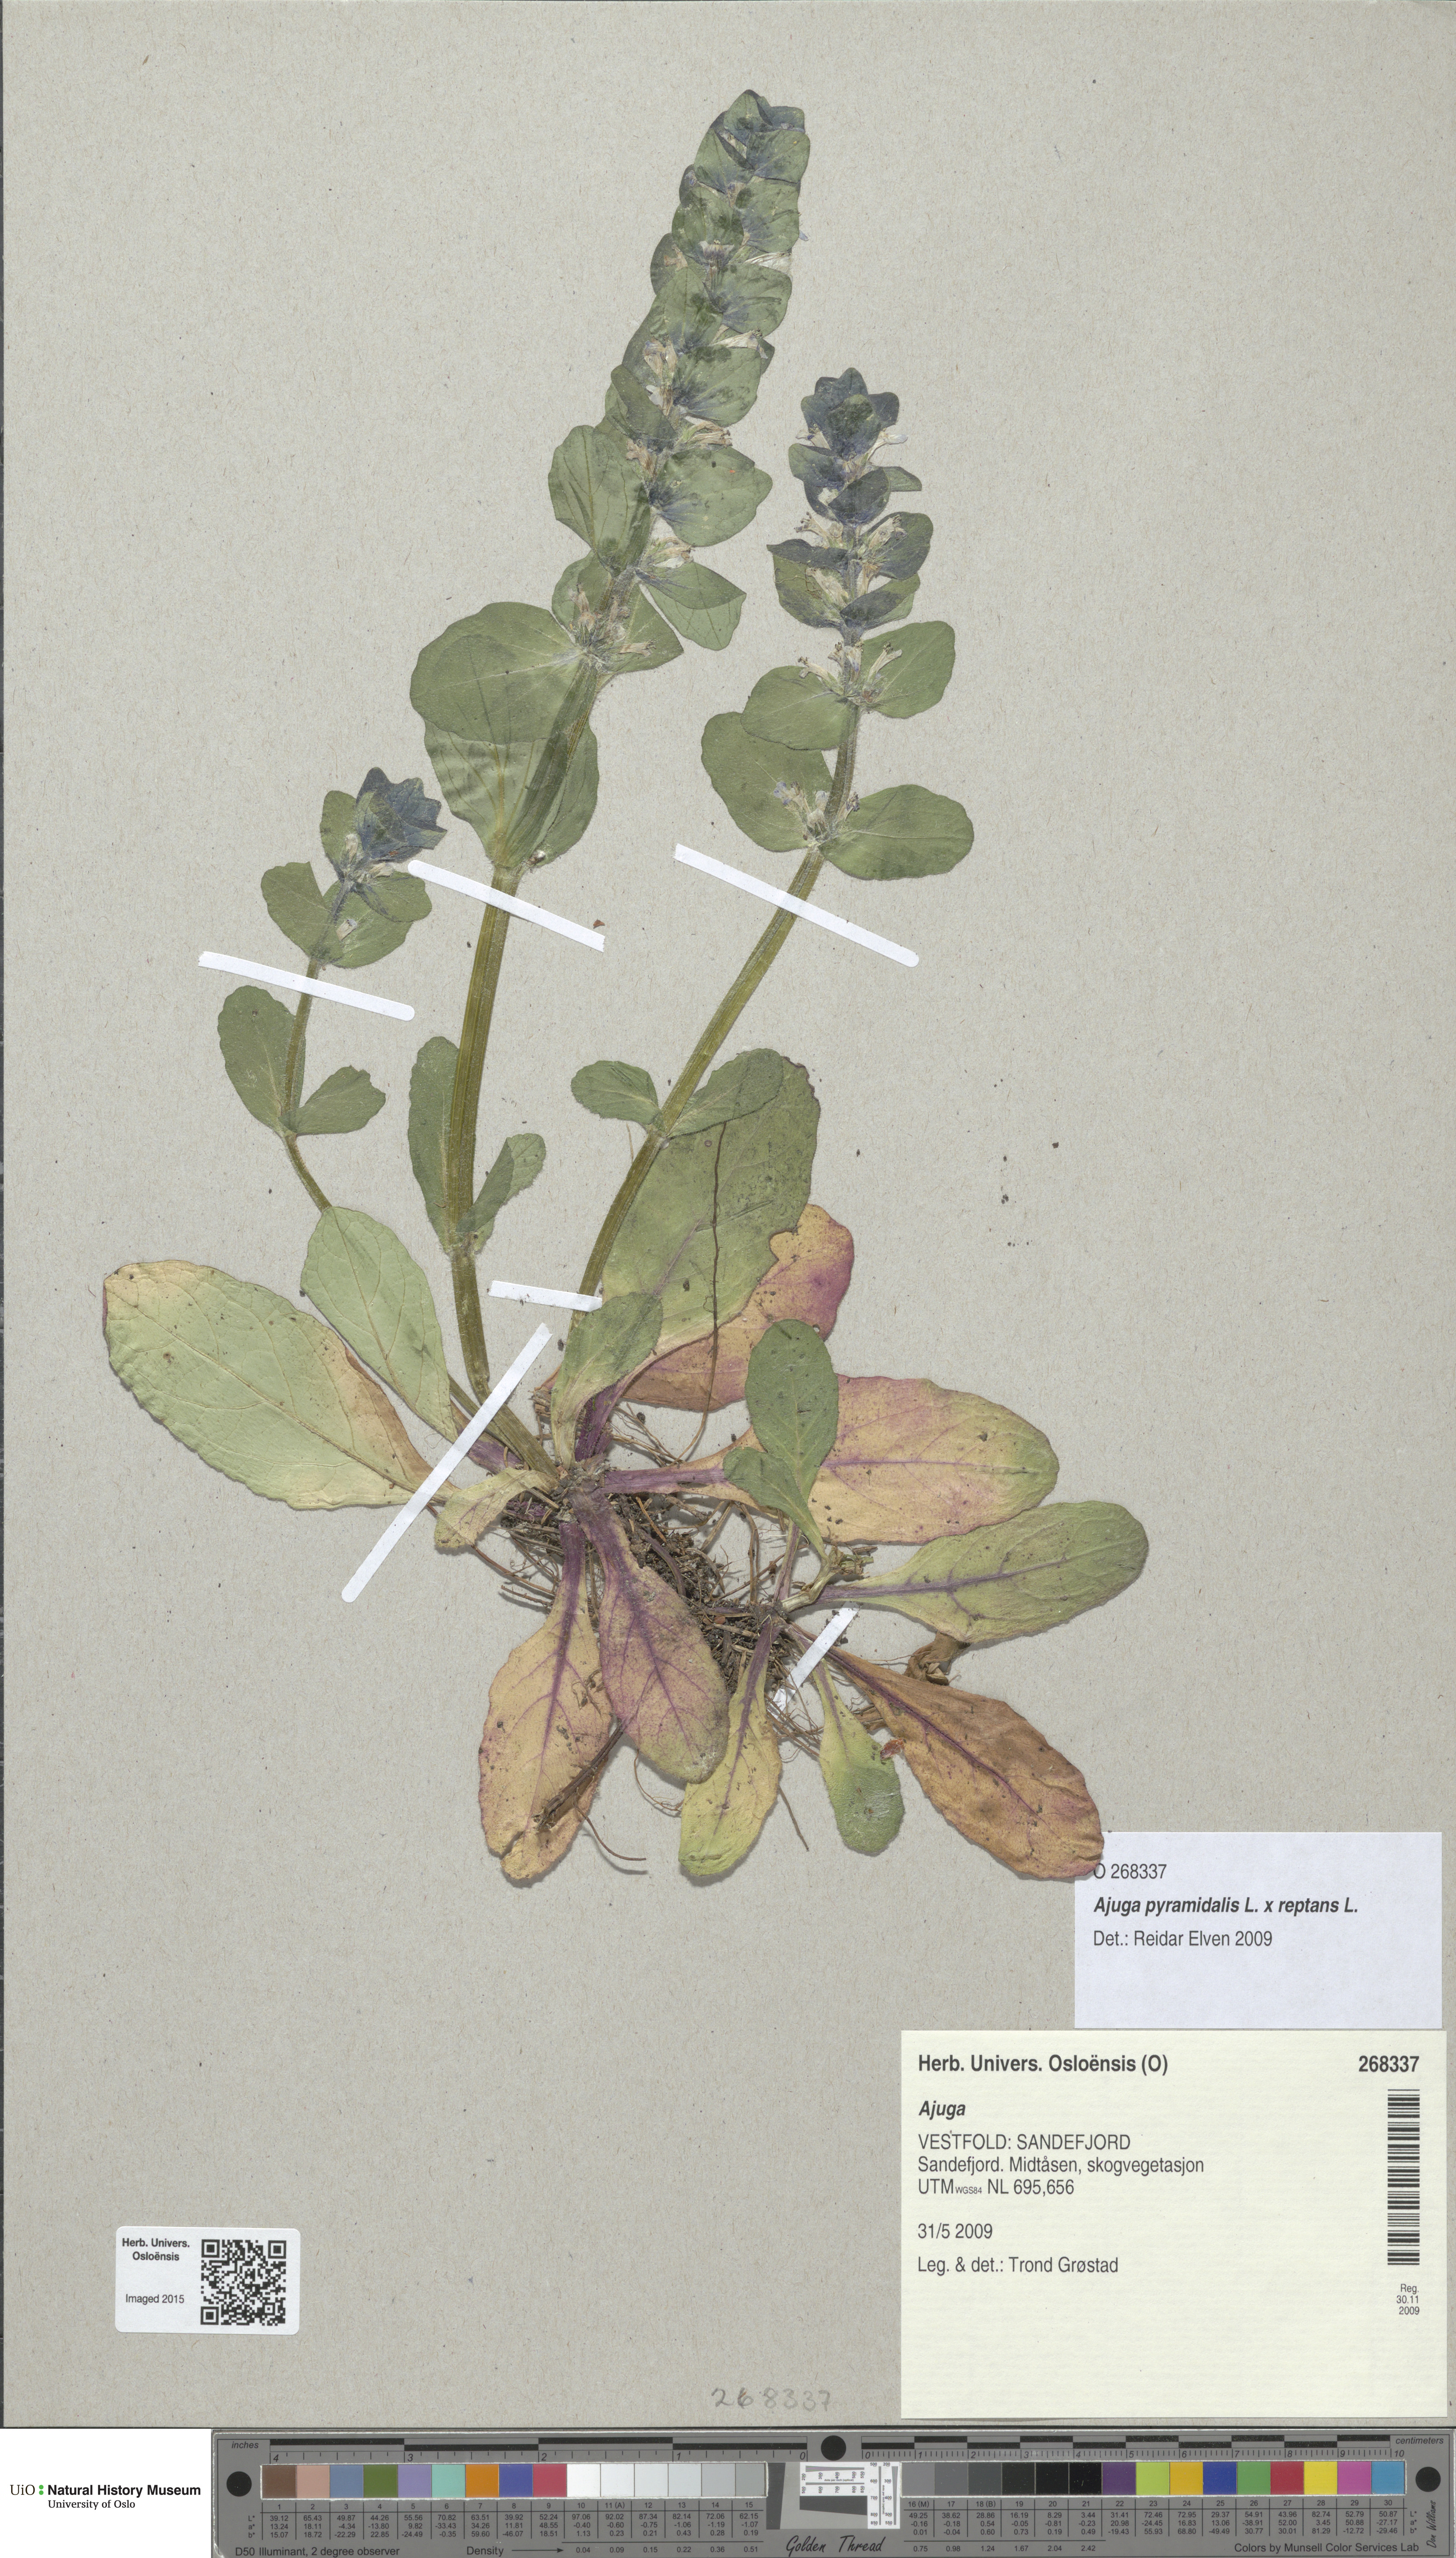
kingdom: Plantae
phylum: Tracheophyta
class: Magnoliopsida
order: Lamiales
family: Lamiaceae
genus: Ajuga
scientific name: Ajuga
